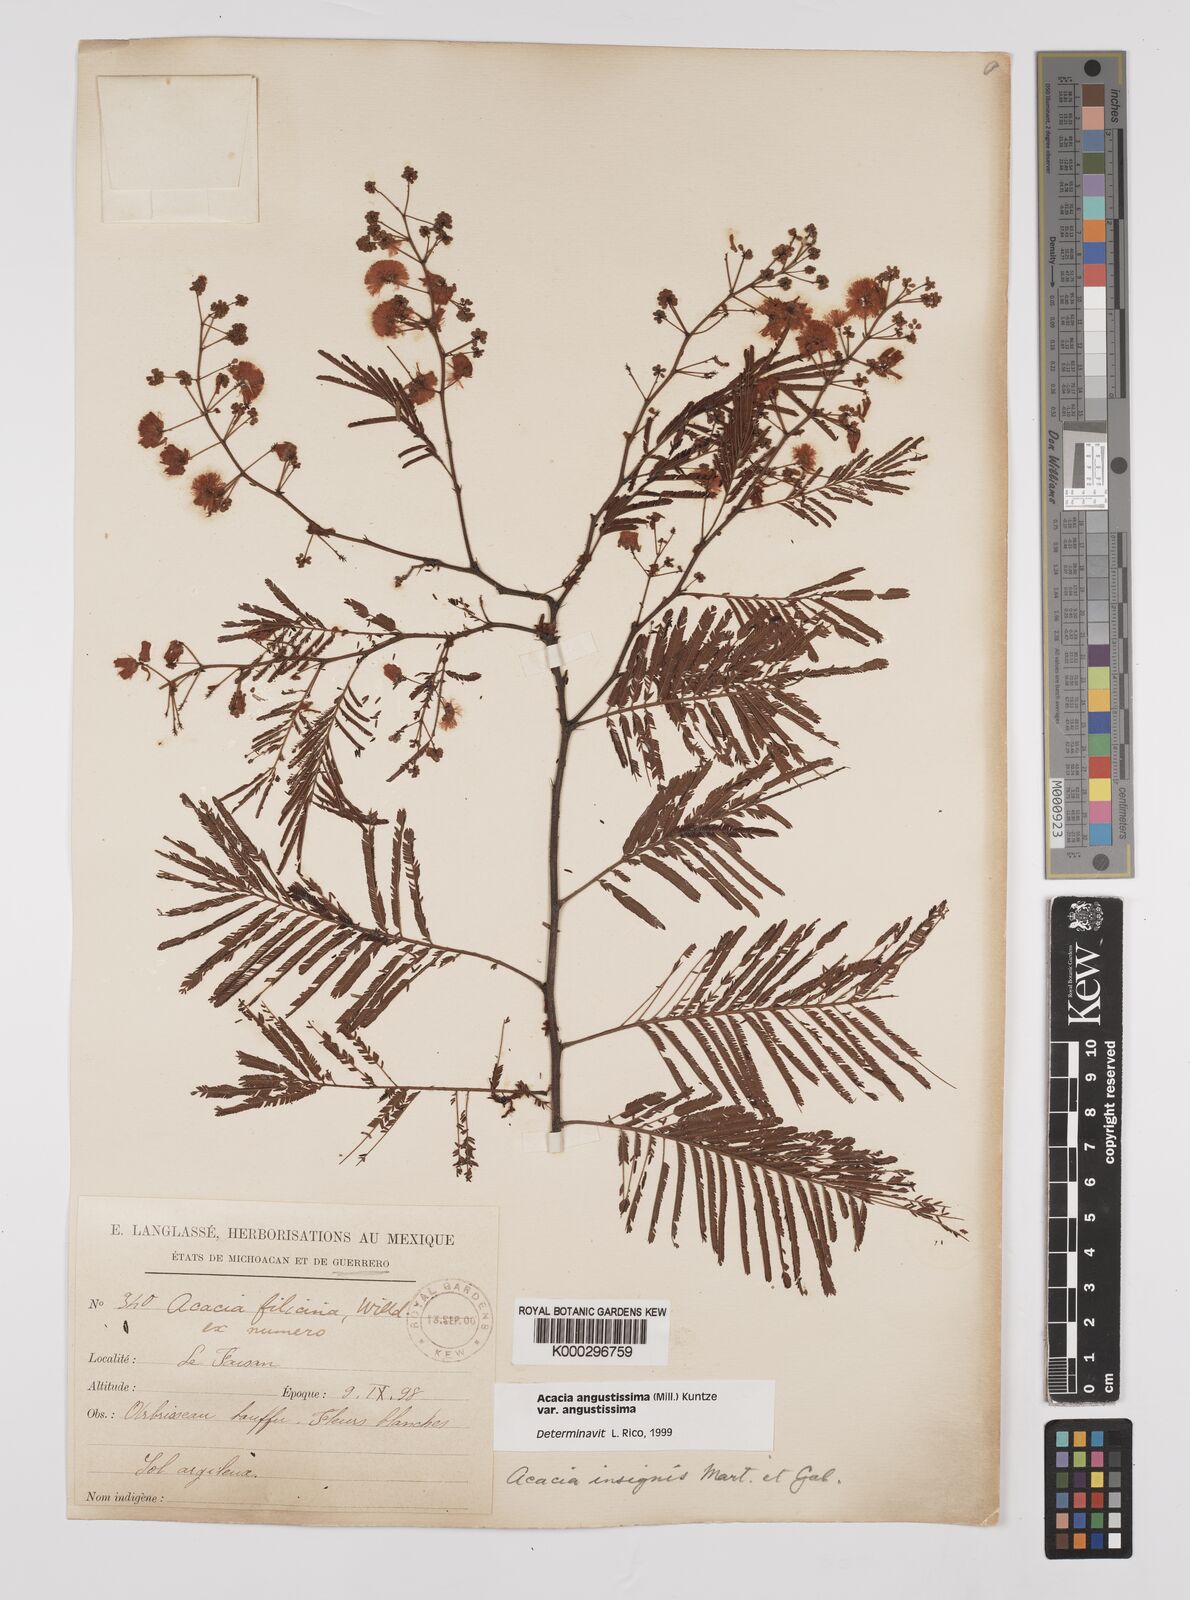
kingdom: Plantae
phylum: Tracheophyta
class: Magnoliopsida
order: Fabales
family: Fabaceae
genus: Acaciella
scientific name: Acaciella angustissima
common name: Prairie acacia
